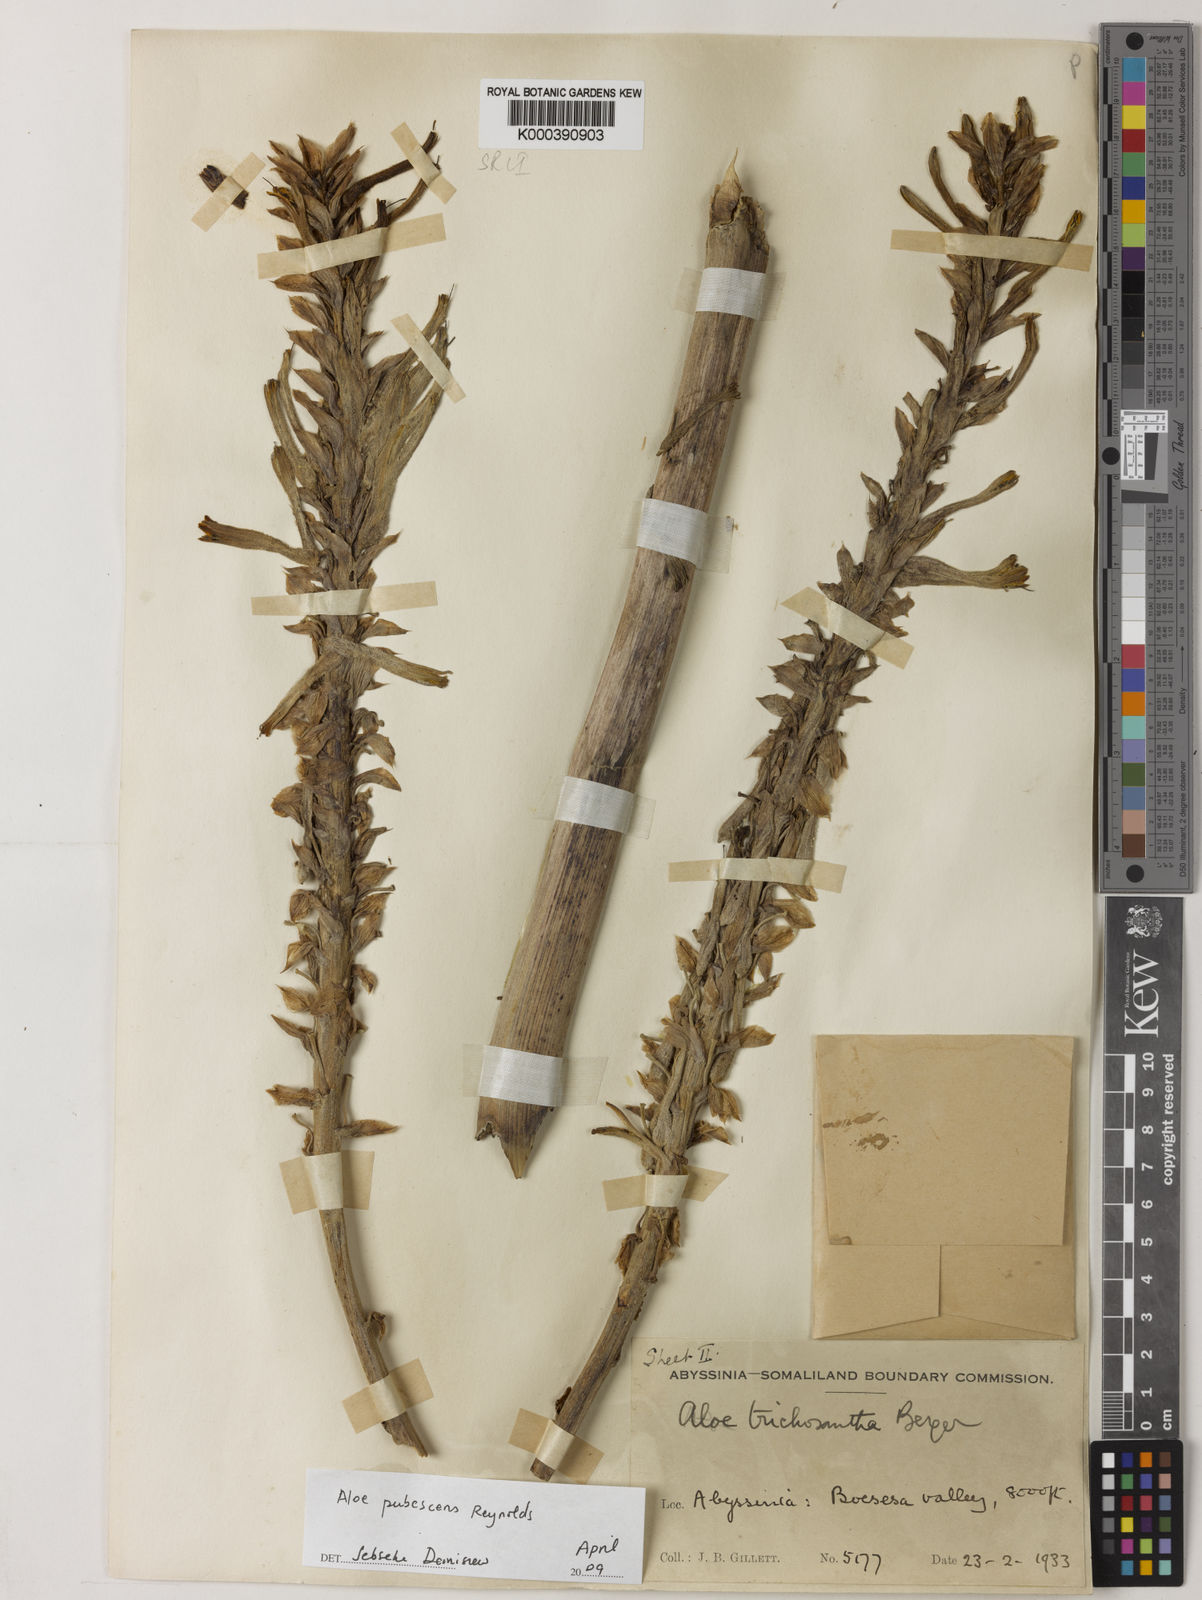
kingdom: Plantae
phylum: Tracheophyta
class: Liliopsida
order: Asparagales
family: Asphodelaceae
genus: Aloe
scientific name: Aloe pubescens
